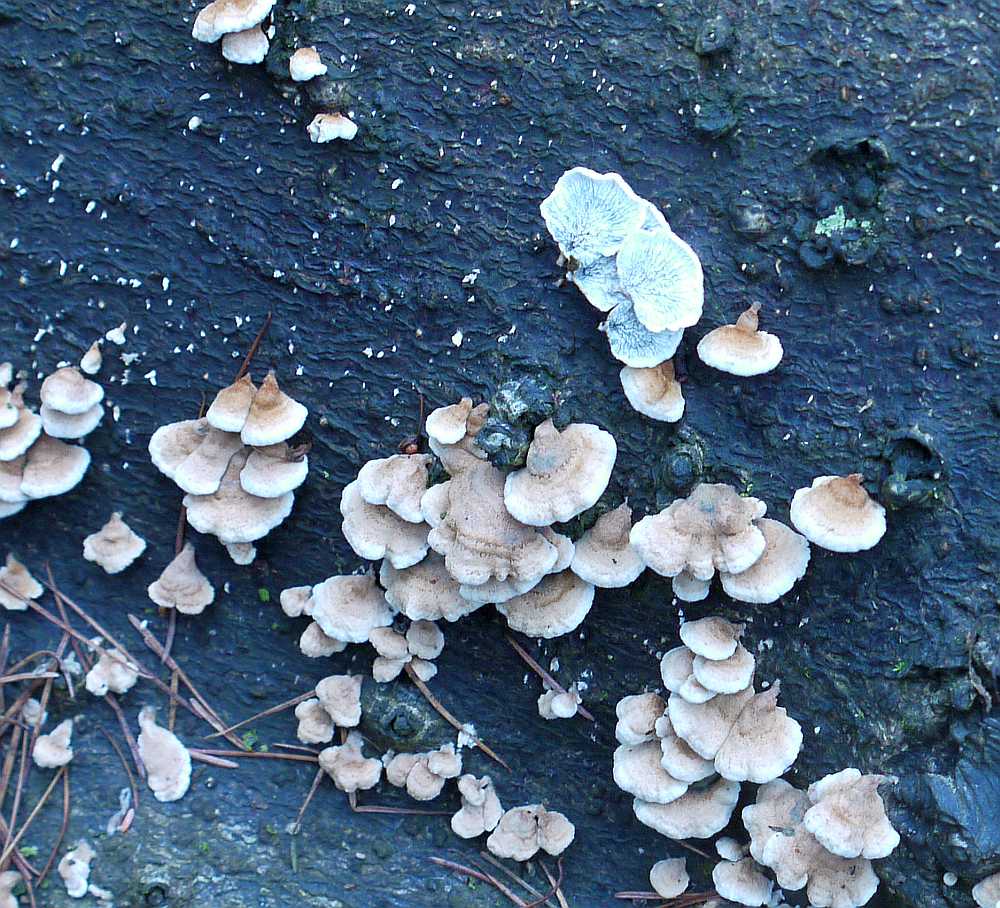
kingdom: Fungi
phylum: Basidiomycota
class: Agaricomycetes
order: Amylocorticiales
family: Amylocorticiaceae
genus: Plicaturopsis
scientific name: Plicaturopsis crispa
